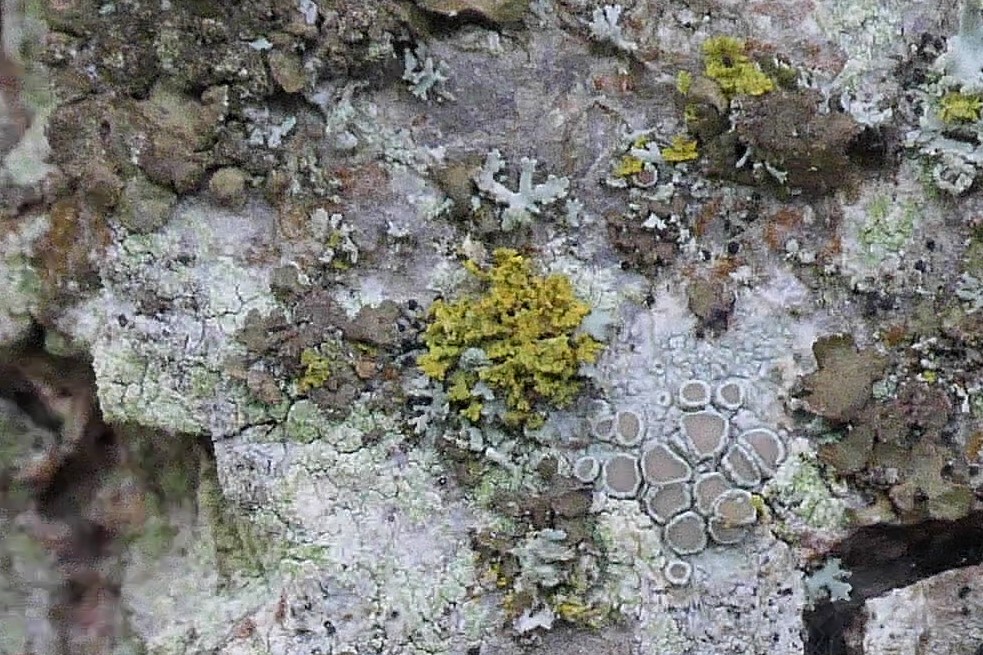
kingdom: Fungi
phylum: Ascomycota
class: Lecanoromycetes
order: Teloschistales
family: Teloschistaceae
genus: Polycauliona
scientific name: Polycauliona candelaria
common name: tue-orangelav
